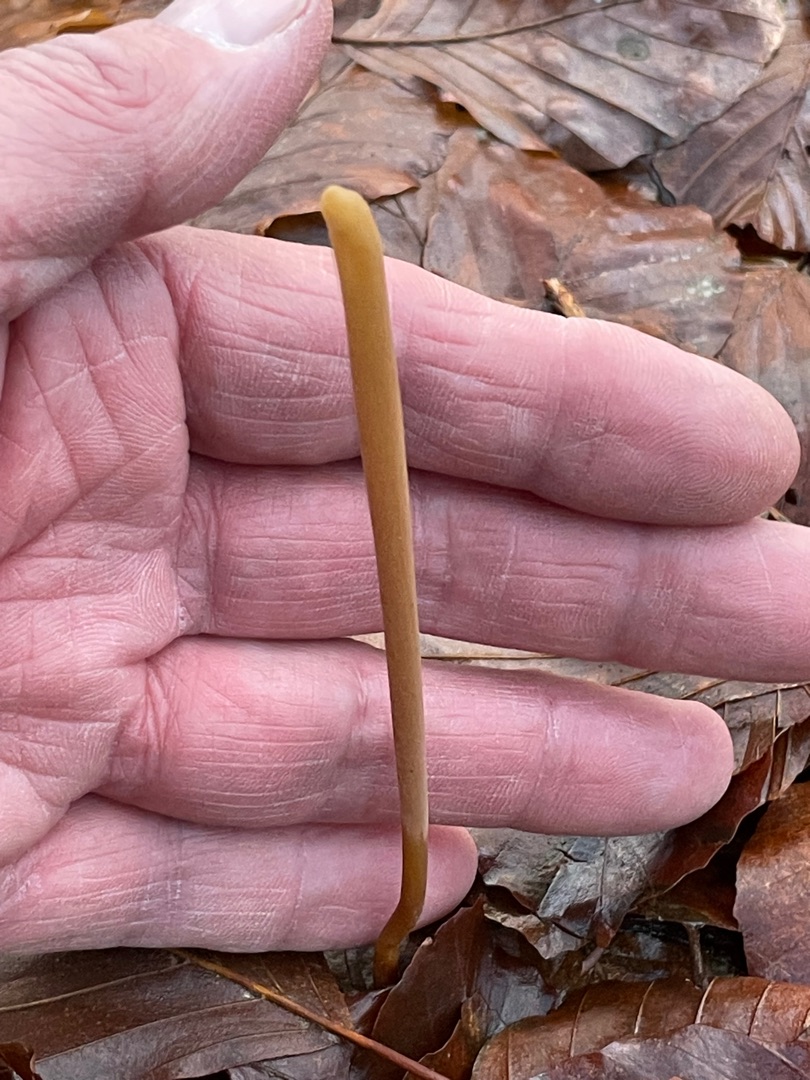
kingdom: Fungi
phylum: Basidiomycota
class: Agaricomycetes
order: Agaricales
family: Typhulaceae
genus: Typhula
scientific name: Typhula fistulosa
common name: Pibet rørkølle
